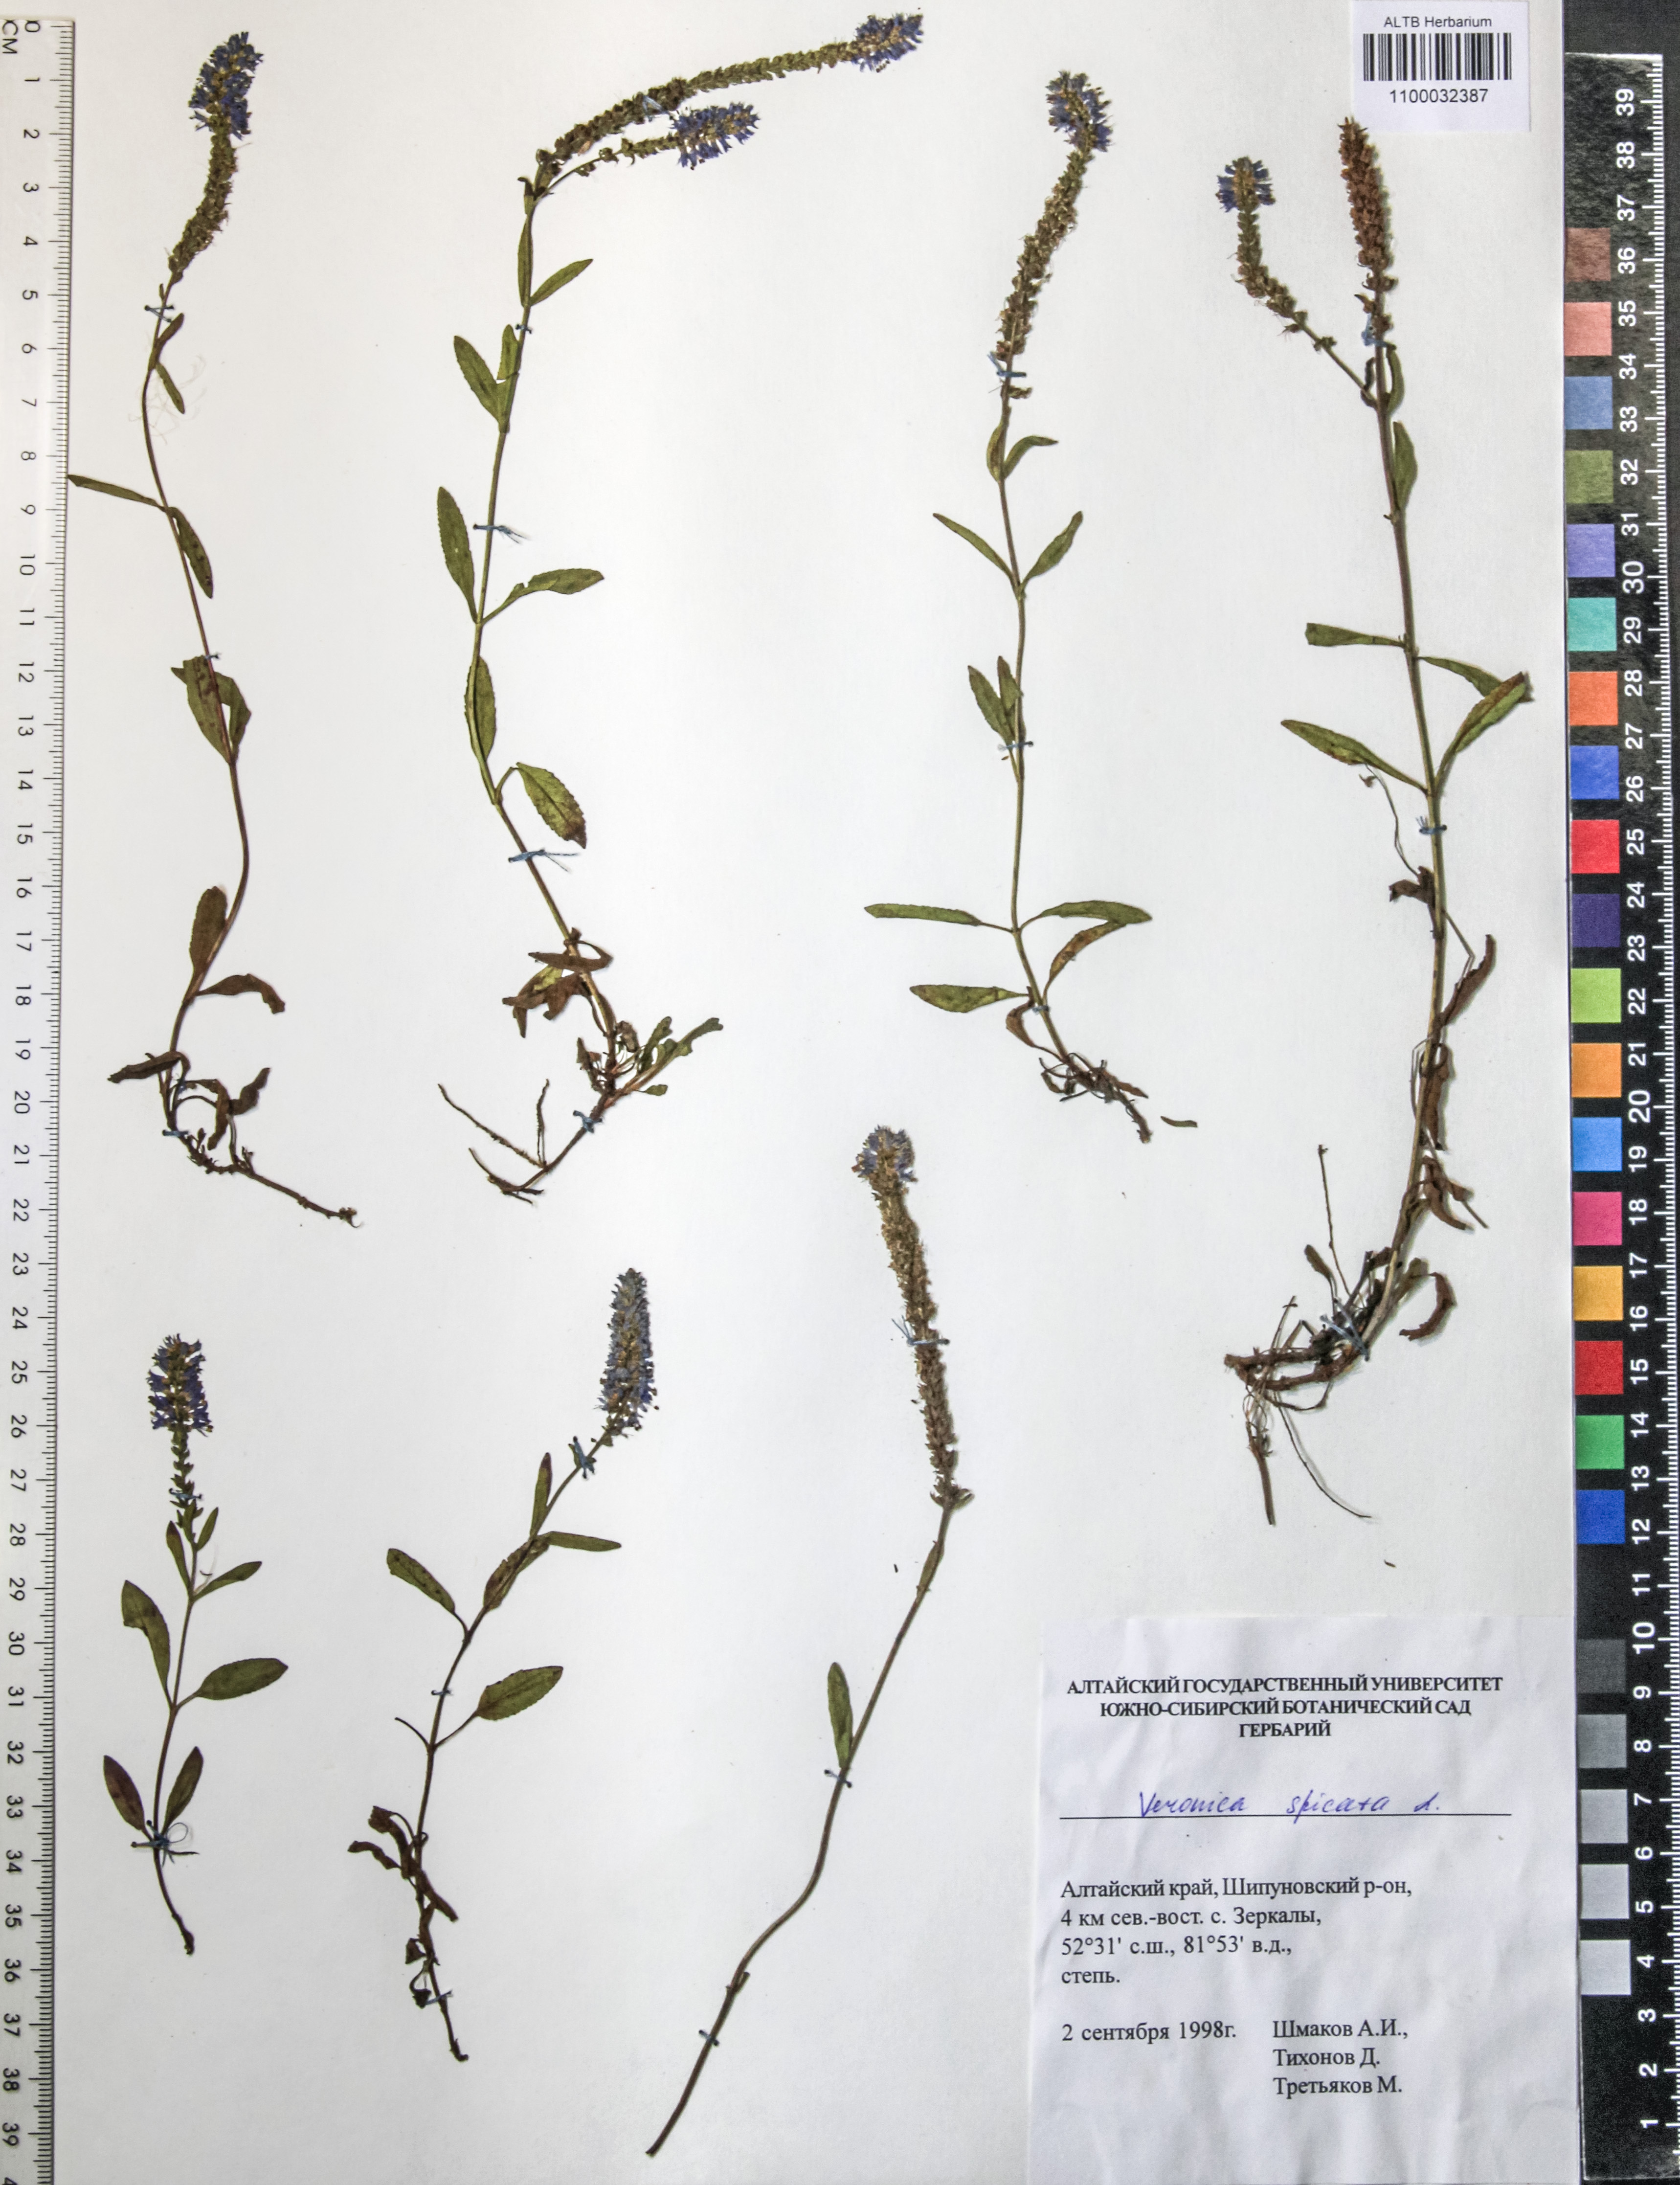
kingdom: Plantae
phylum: Tracheophyta
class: Magnoliopsida
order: Lamiales
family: Plantaginaceae
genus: Veronica
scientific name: Veronica spicata
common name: Spiked speedwell
